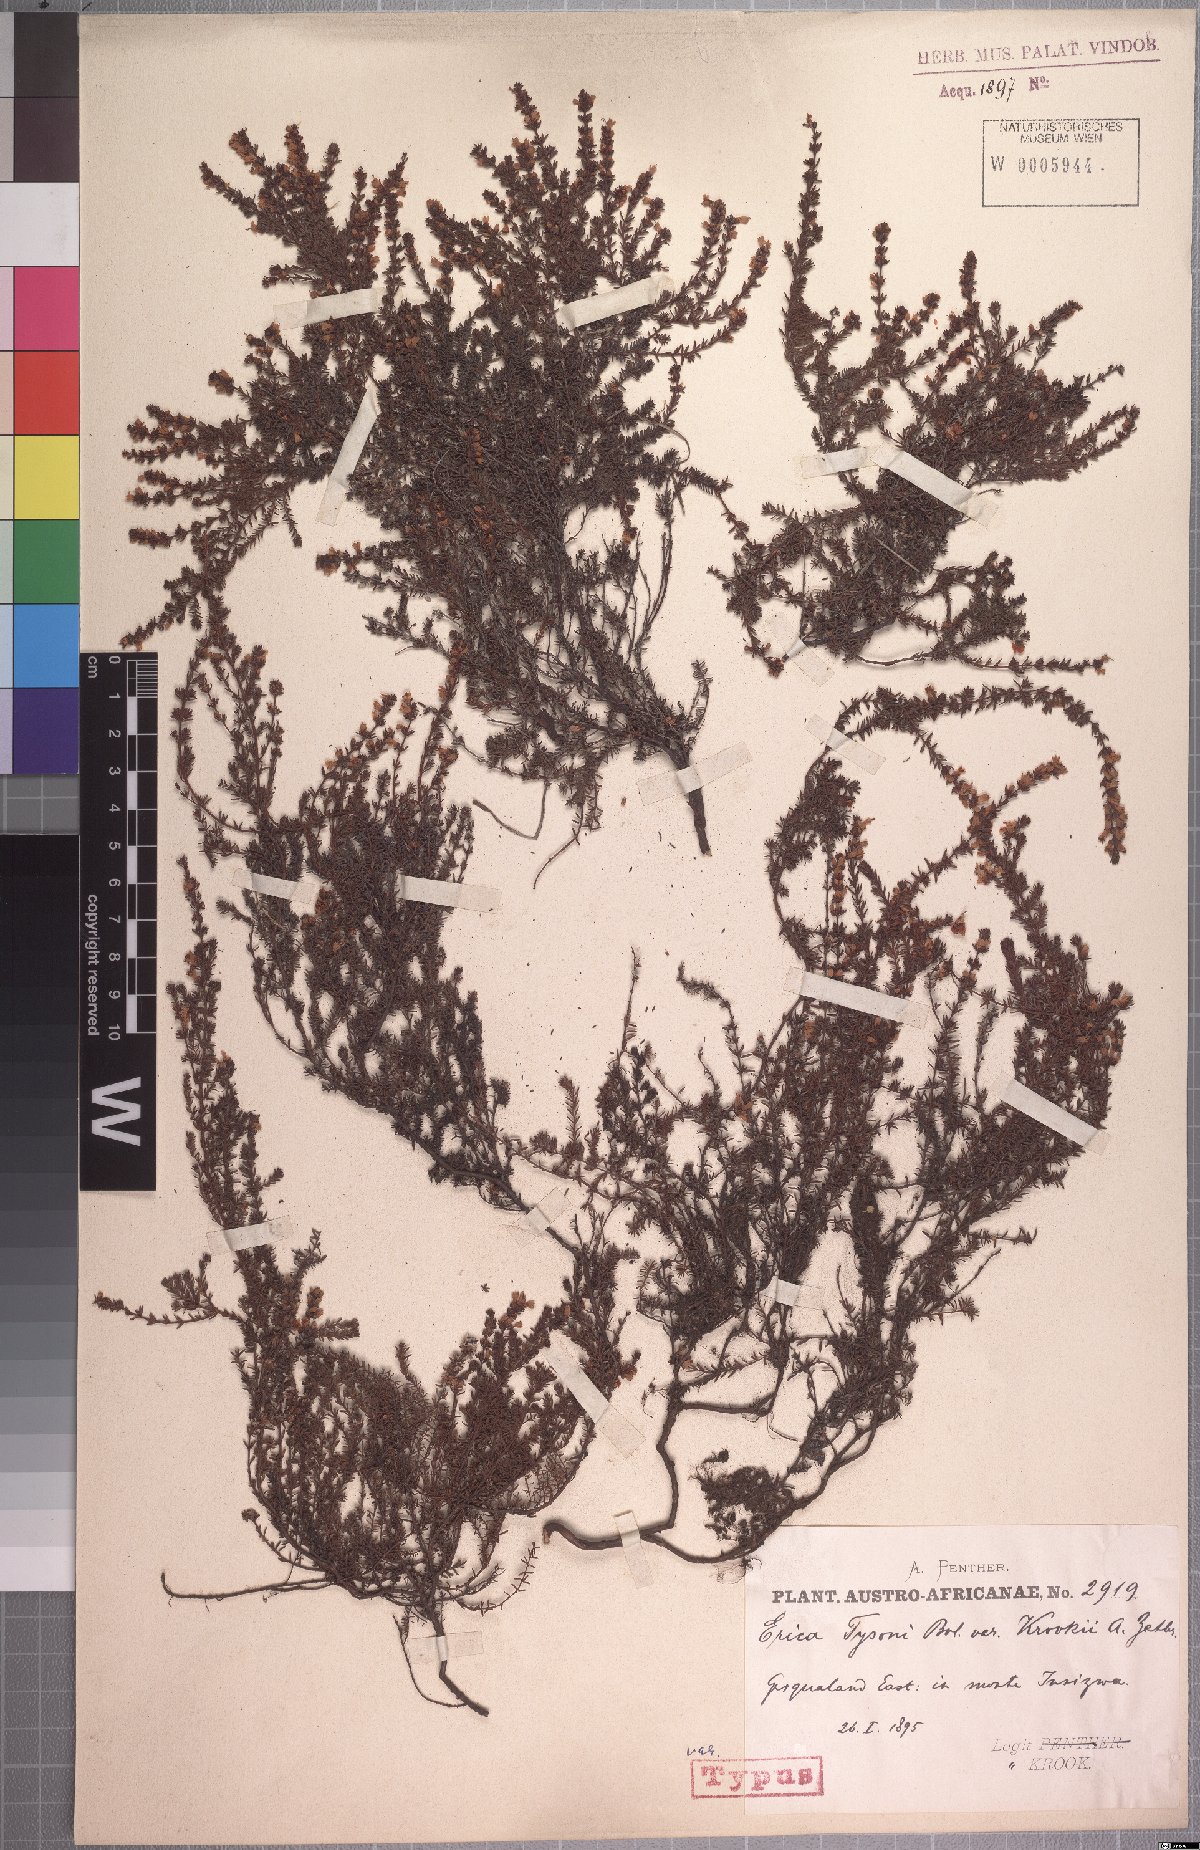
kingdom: Plantae
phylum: Tracheophyta
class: Magnoliopsida
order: Ericales
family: Ericaceae
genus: Erica
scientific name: Erica tysonii
